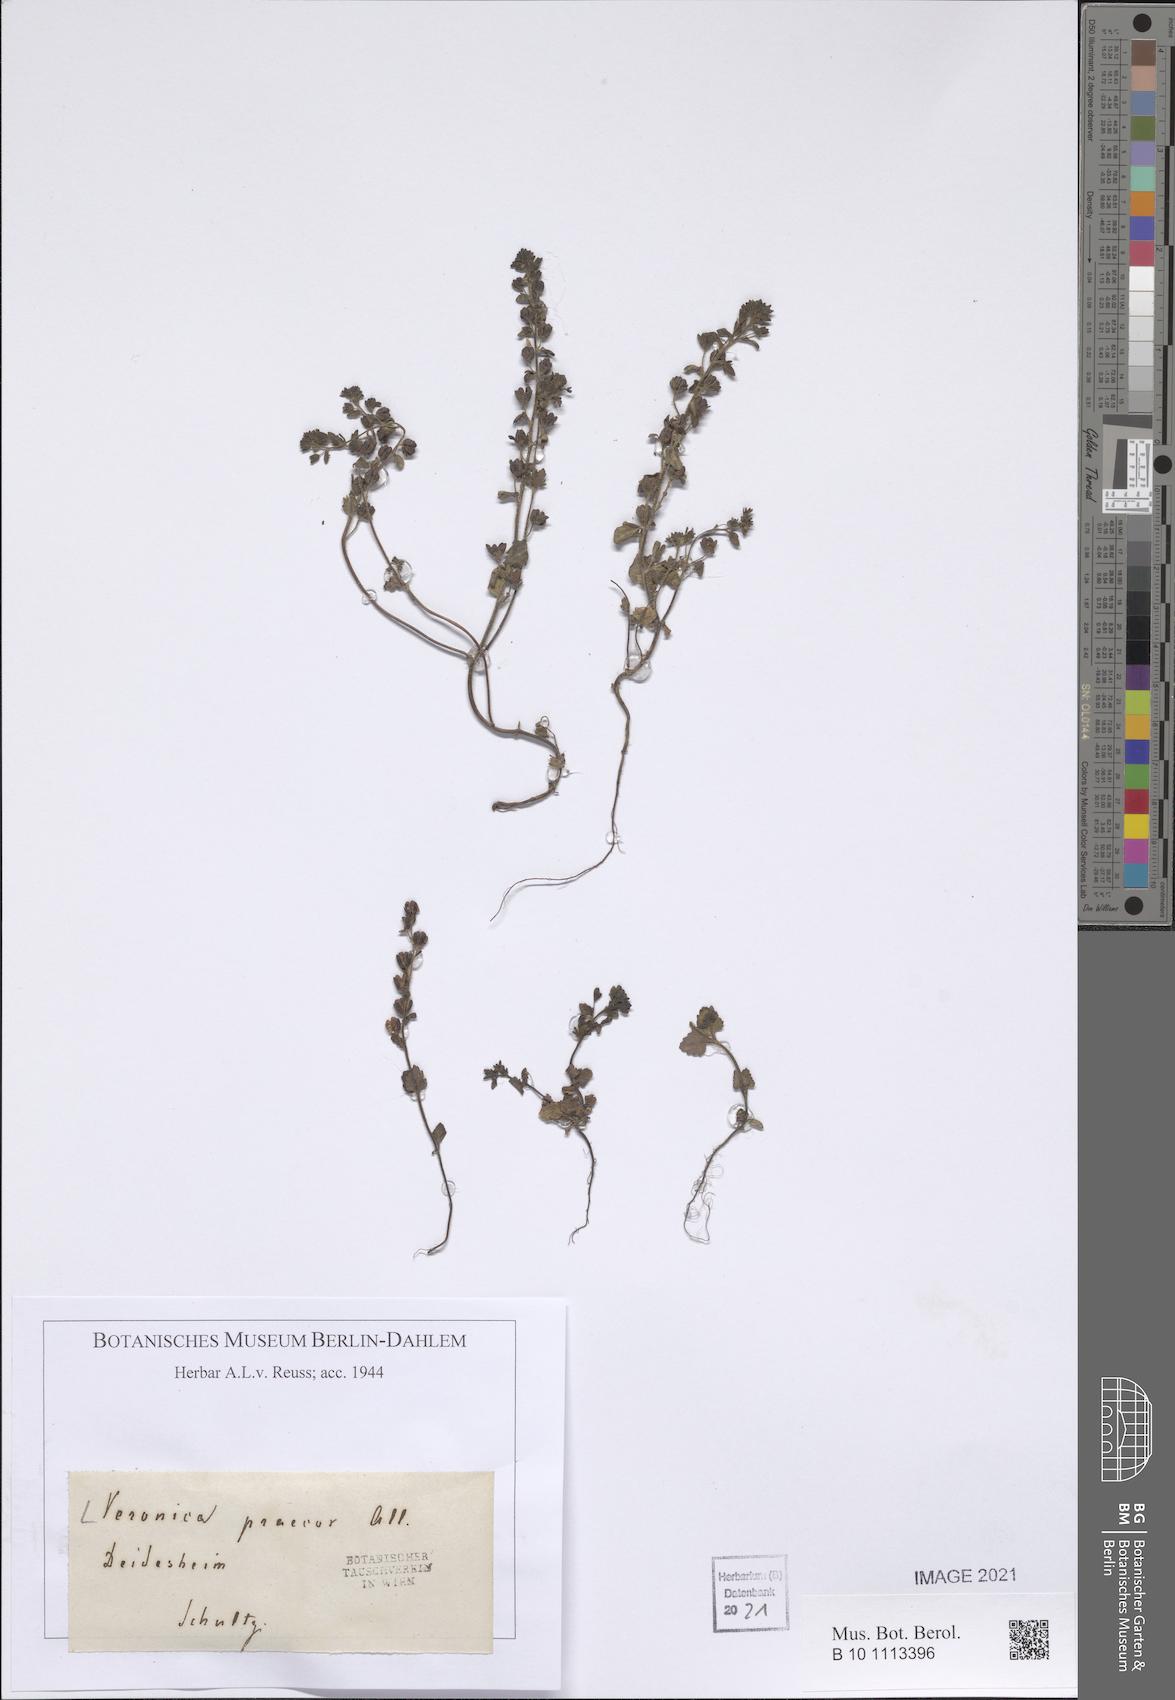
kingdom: Plantae
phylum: Tracheophyta
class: Magnoliopsida
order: Lamiales
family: Plantaginaceae
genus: Veronica
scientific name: Veronica praecox
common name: Breckland speedwell
